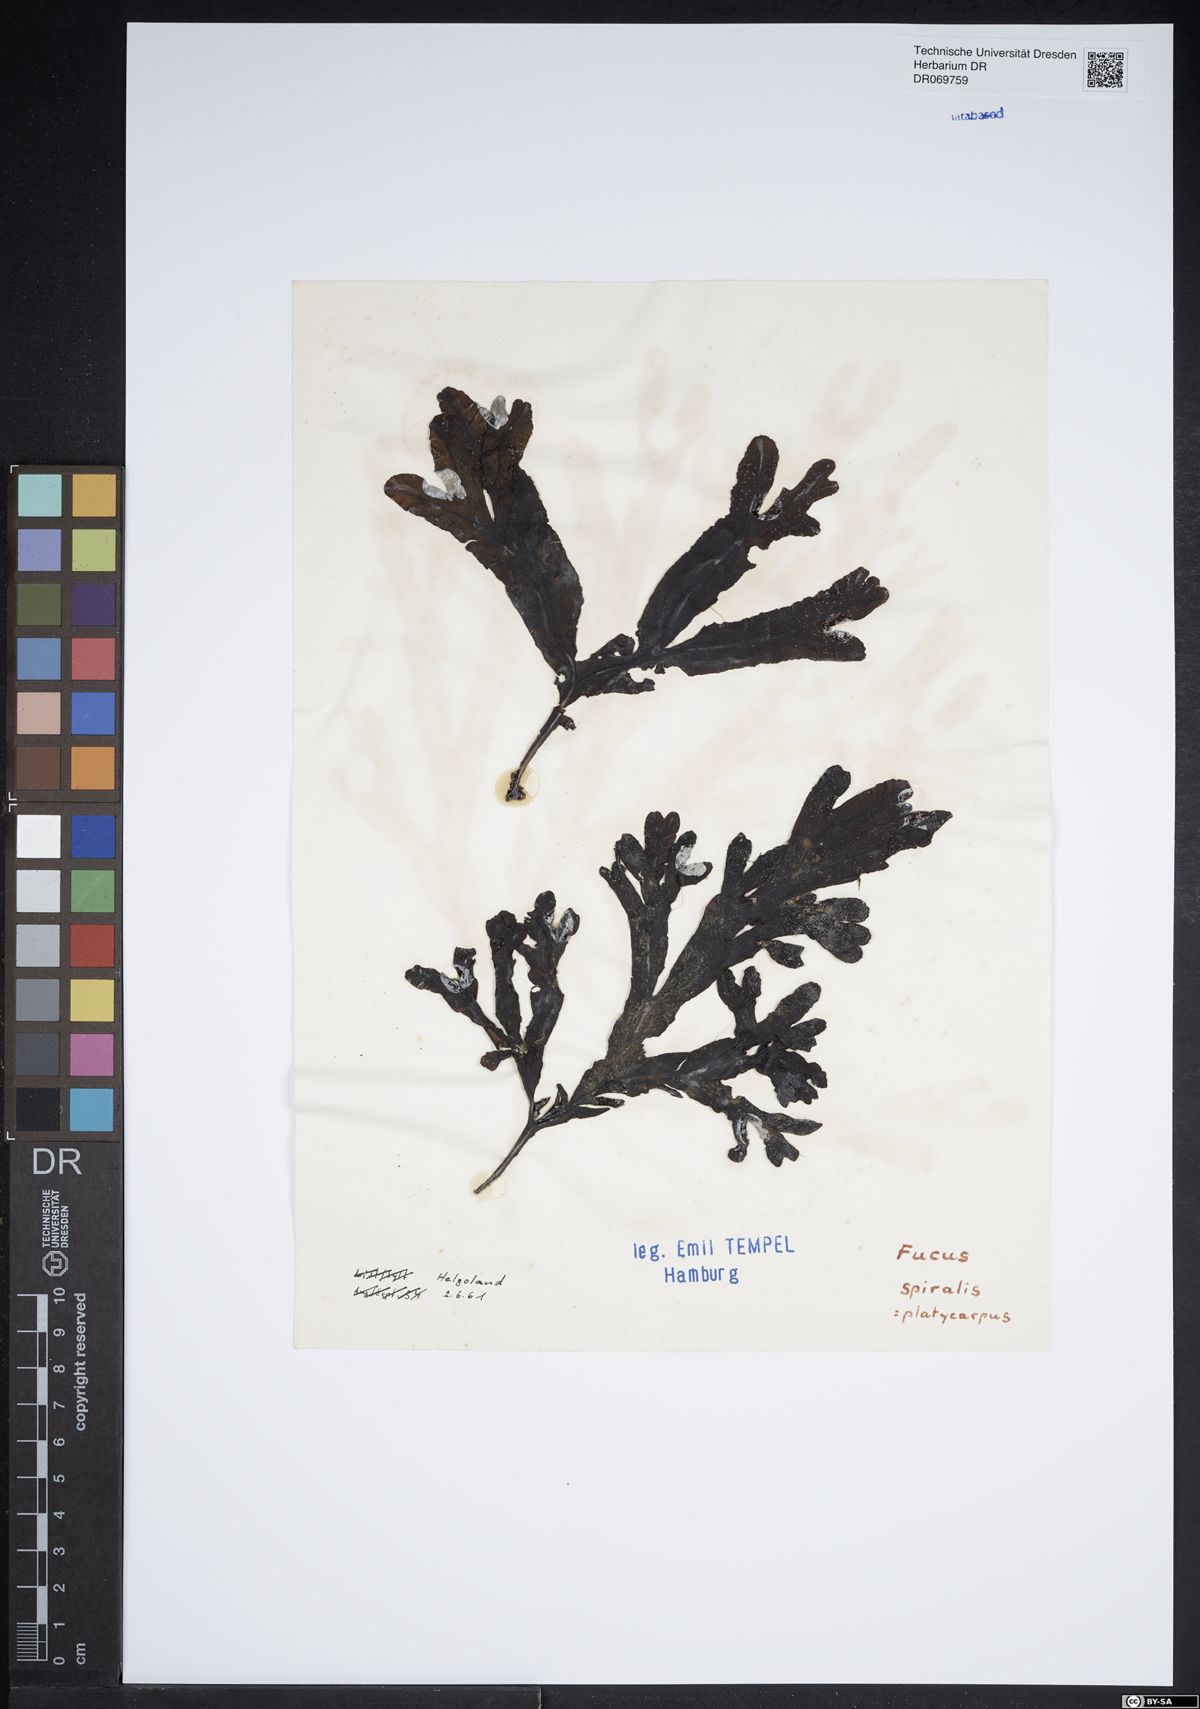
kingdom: Chromista
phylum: Ochrophyta
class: Phaeophyceae
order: Fucales
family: Fucaceae
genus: Fucus
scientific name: Fucus spiralis
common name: Spiral wrack
